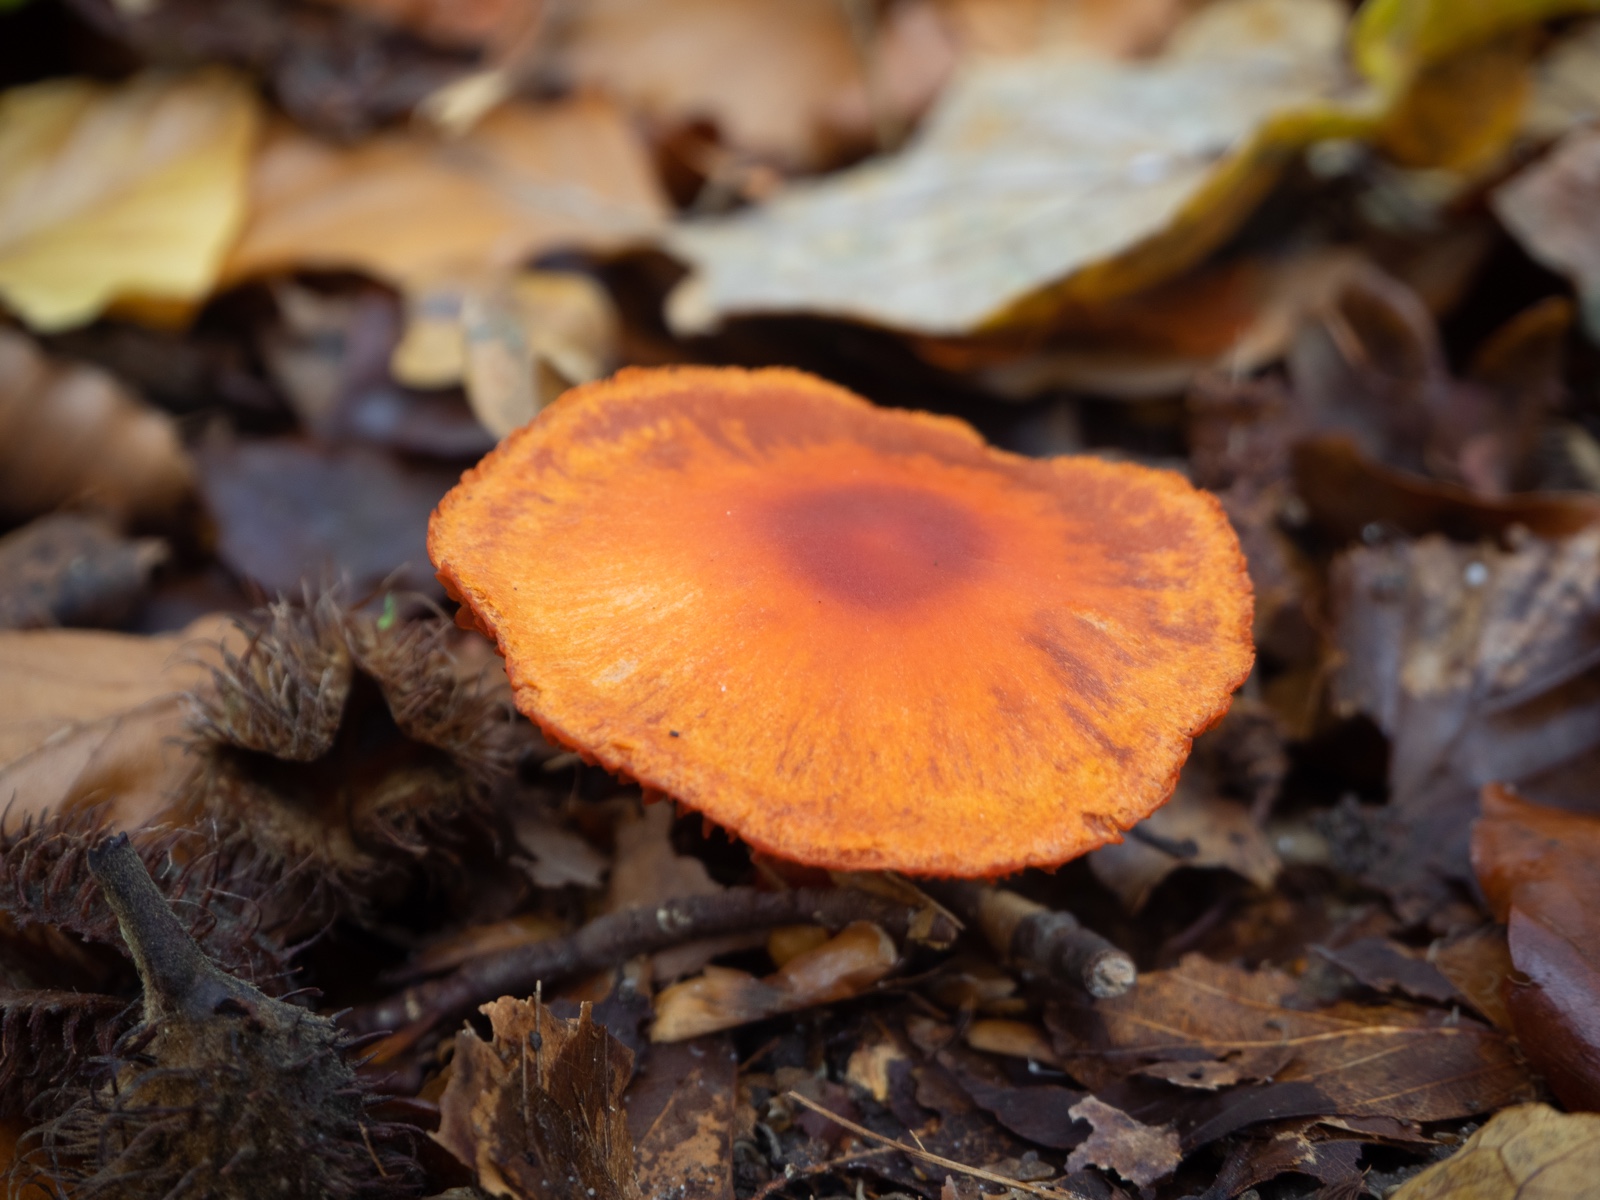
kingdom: Fungi
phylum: Basidiomycota
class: Agaricomycetes
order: Agaricales
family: Cortinariaceae
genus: Cortinarius
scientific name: Cortinarius cinnabarinus
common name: cinnober-slørhat
